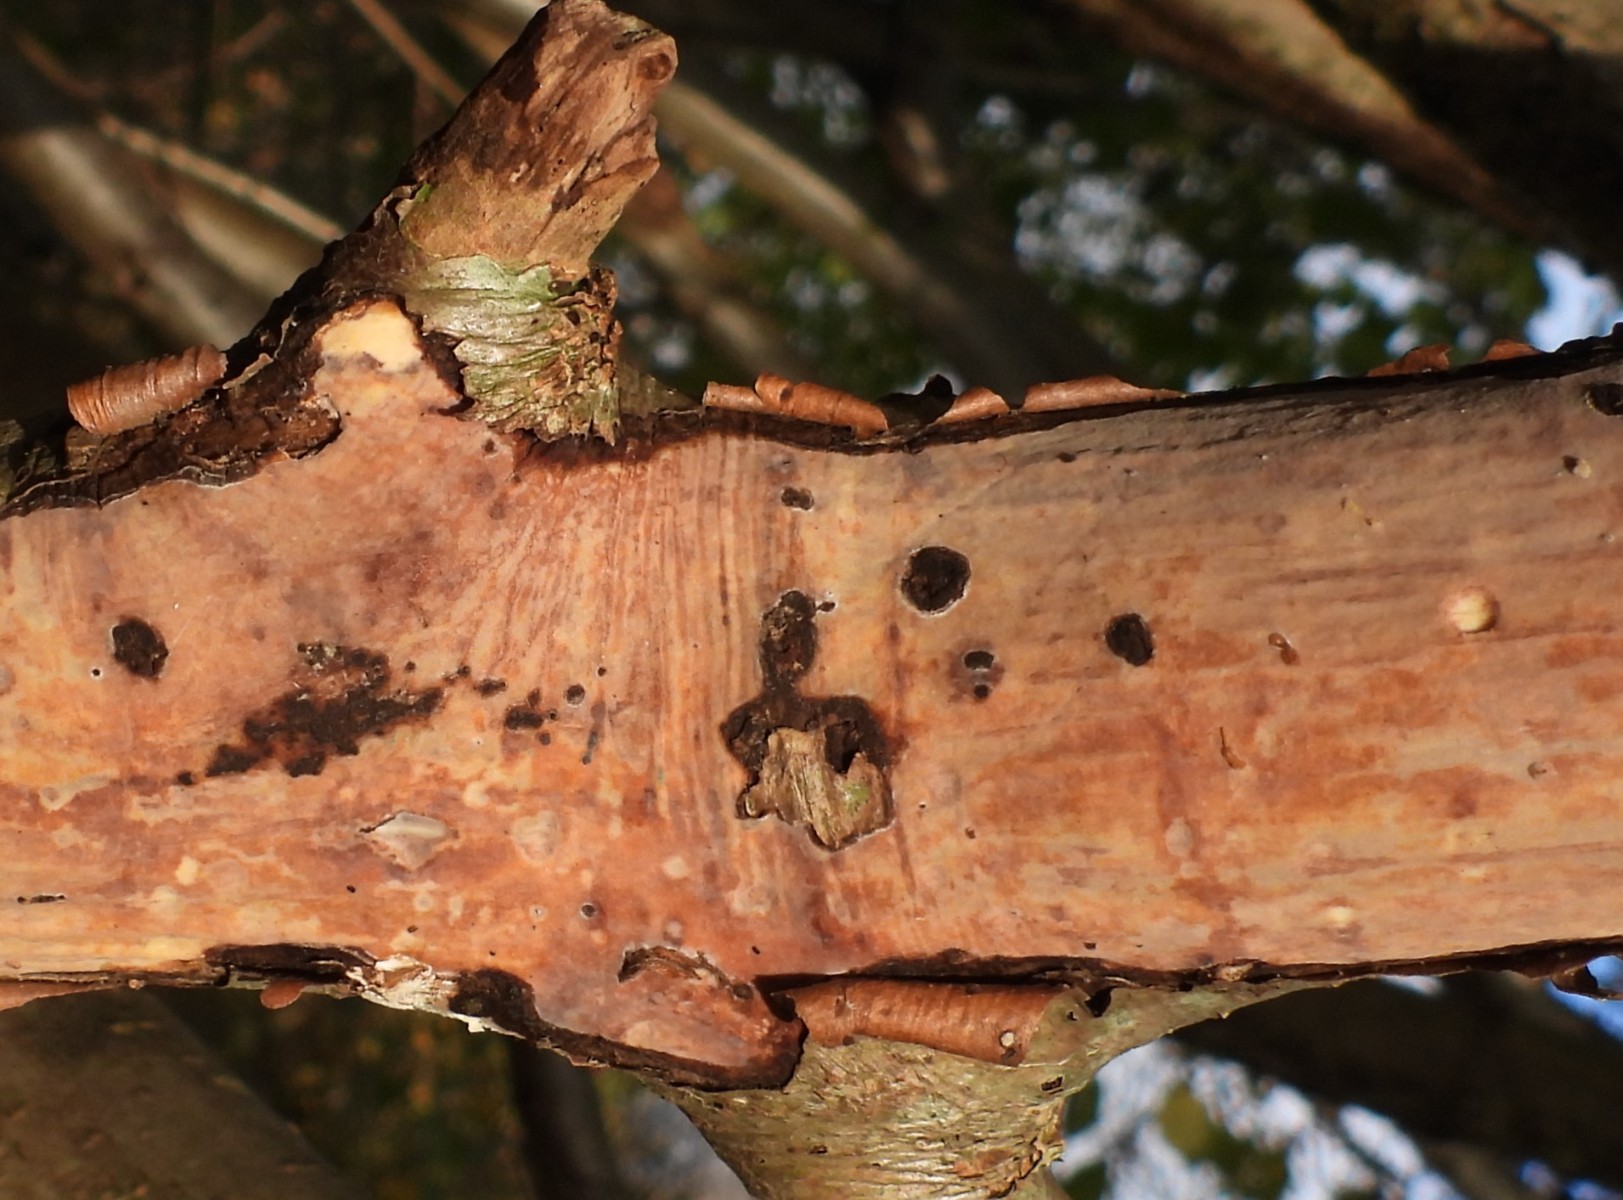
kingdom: Fungi
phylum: Basidiomycota
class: Agaricomycetes
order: Corticiales
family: Vuilleminiaceae
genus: Vuilleminia
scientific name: Vuilleminia coryli
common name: hassel-barksprænger
